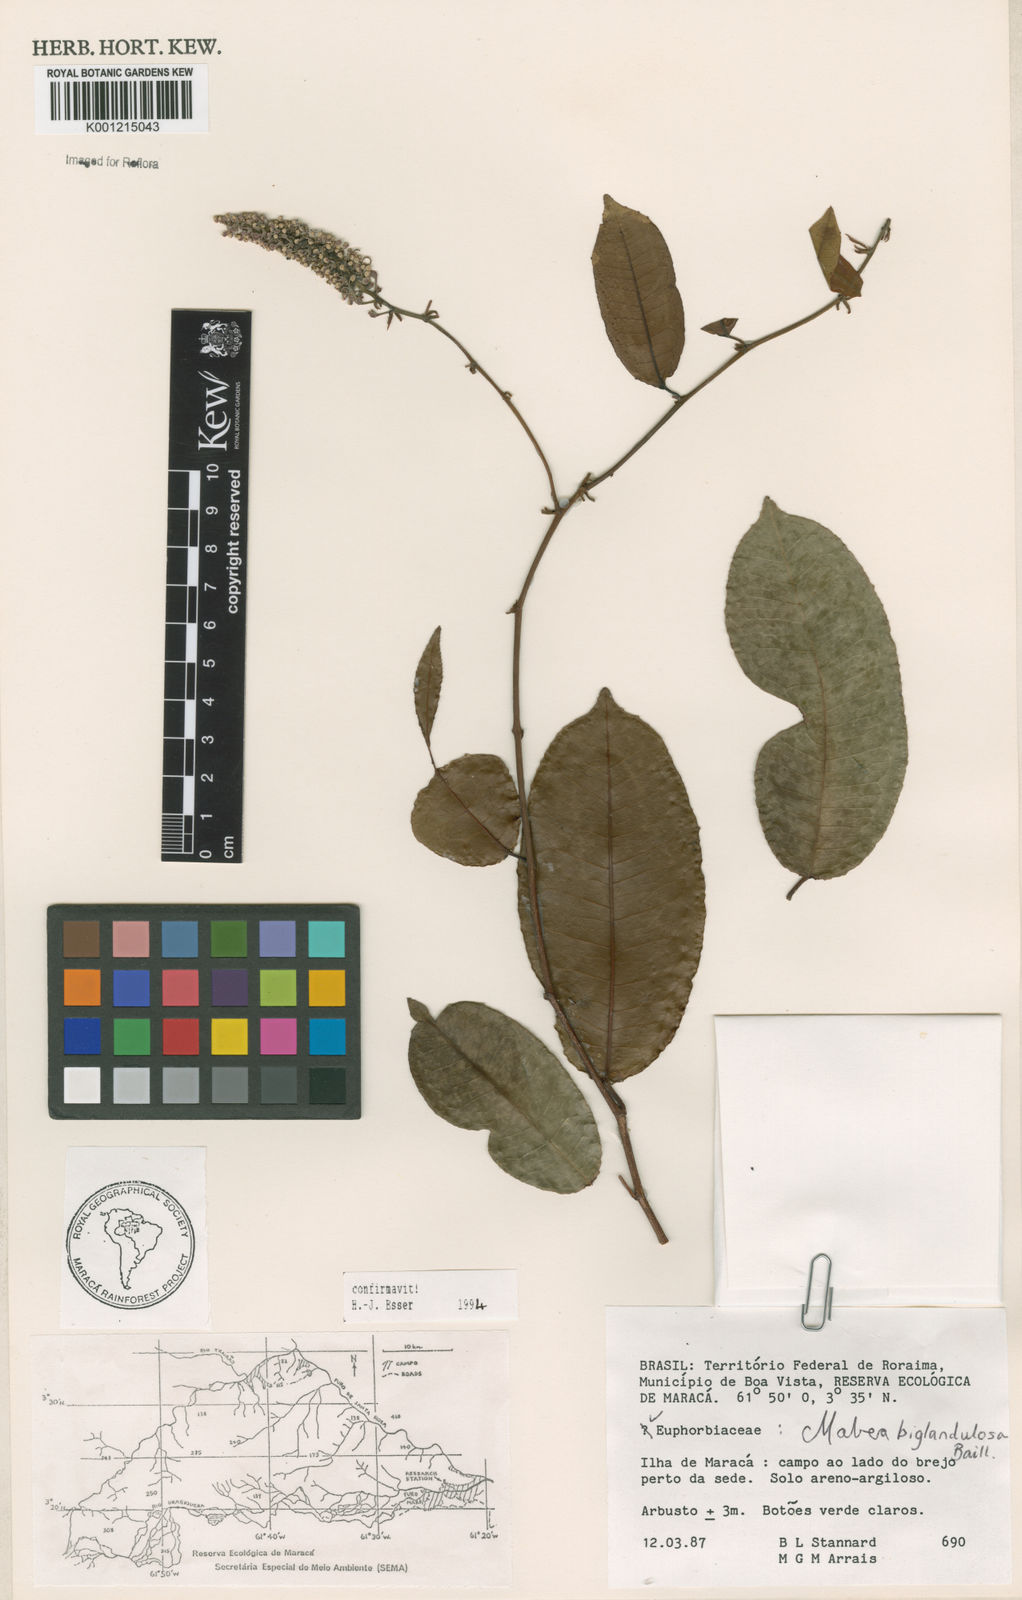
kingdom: Plantae
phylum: Tracheophyta
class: Magnoliopsida
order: Malpighiales
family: Euphorbiaceae
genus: Mabea
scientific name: Mabea
